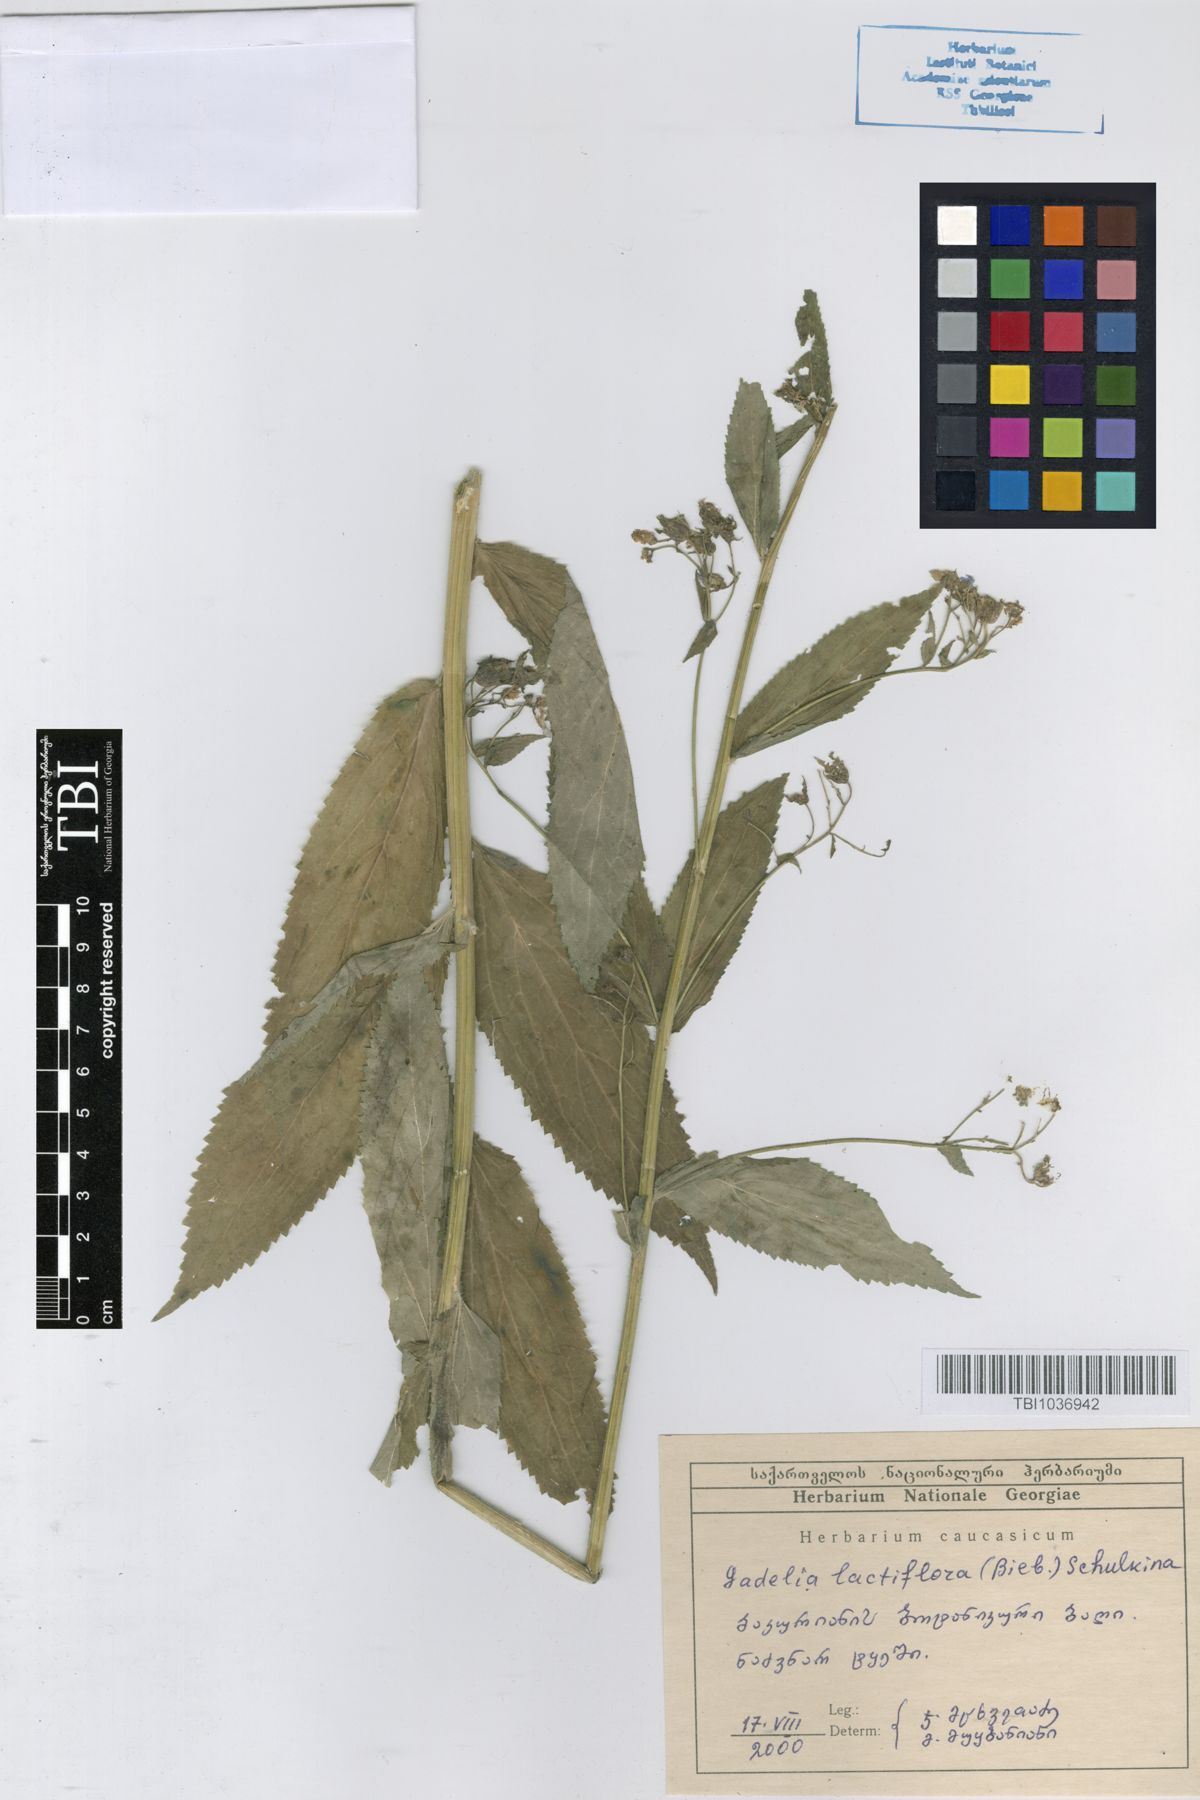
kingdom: Plantae
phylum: Tracheophyta
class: Magnoliopsida
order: Asterales
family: Campanulaceae
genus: Campanula
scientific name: Campanula lactiflora
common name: Milky bellflower
